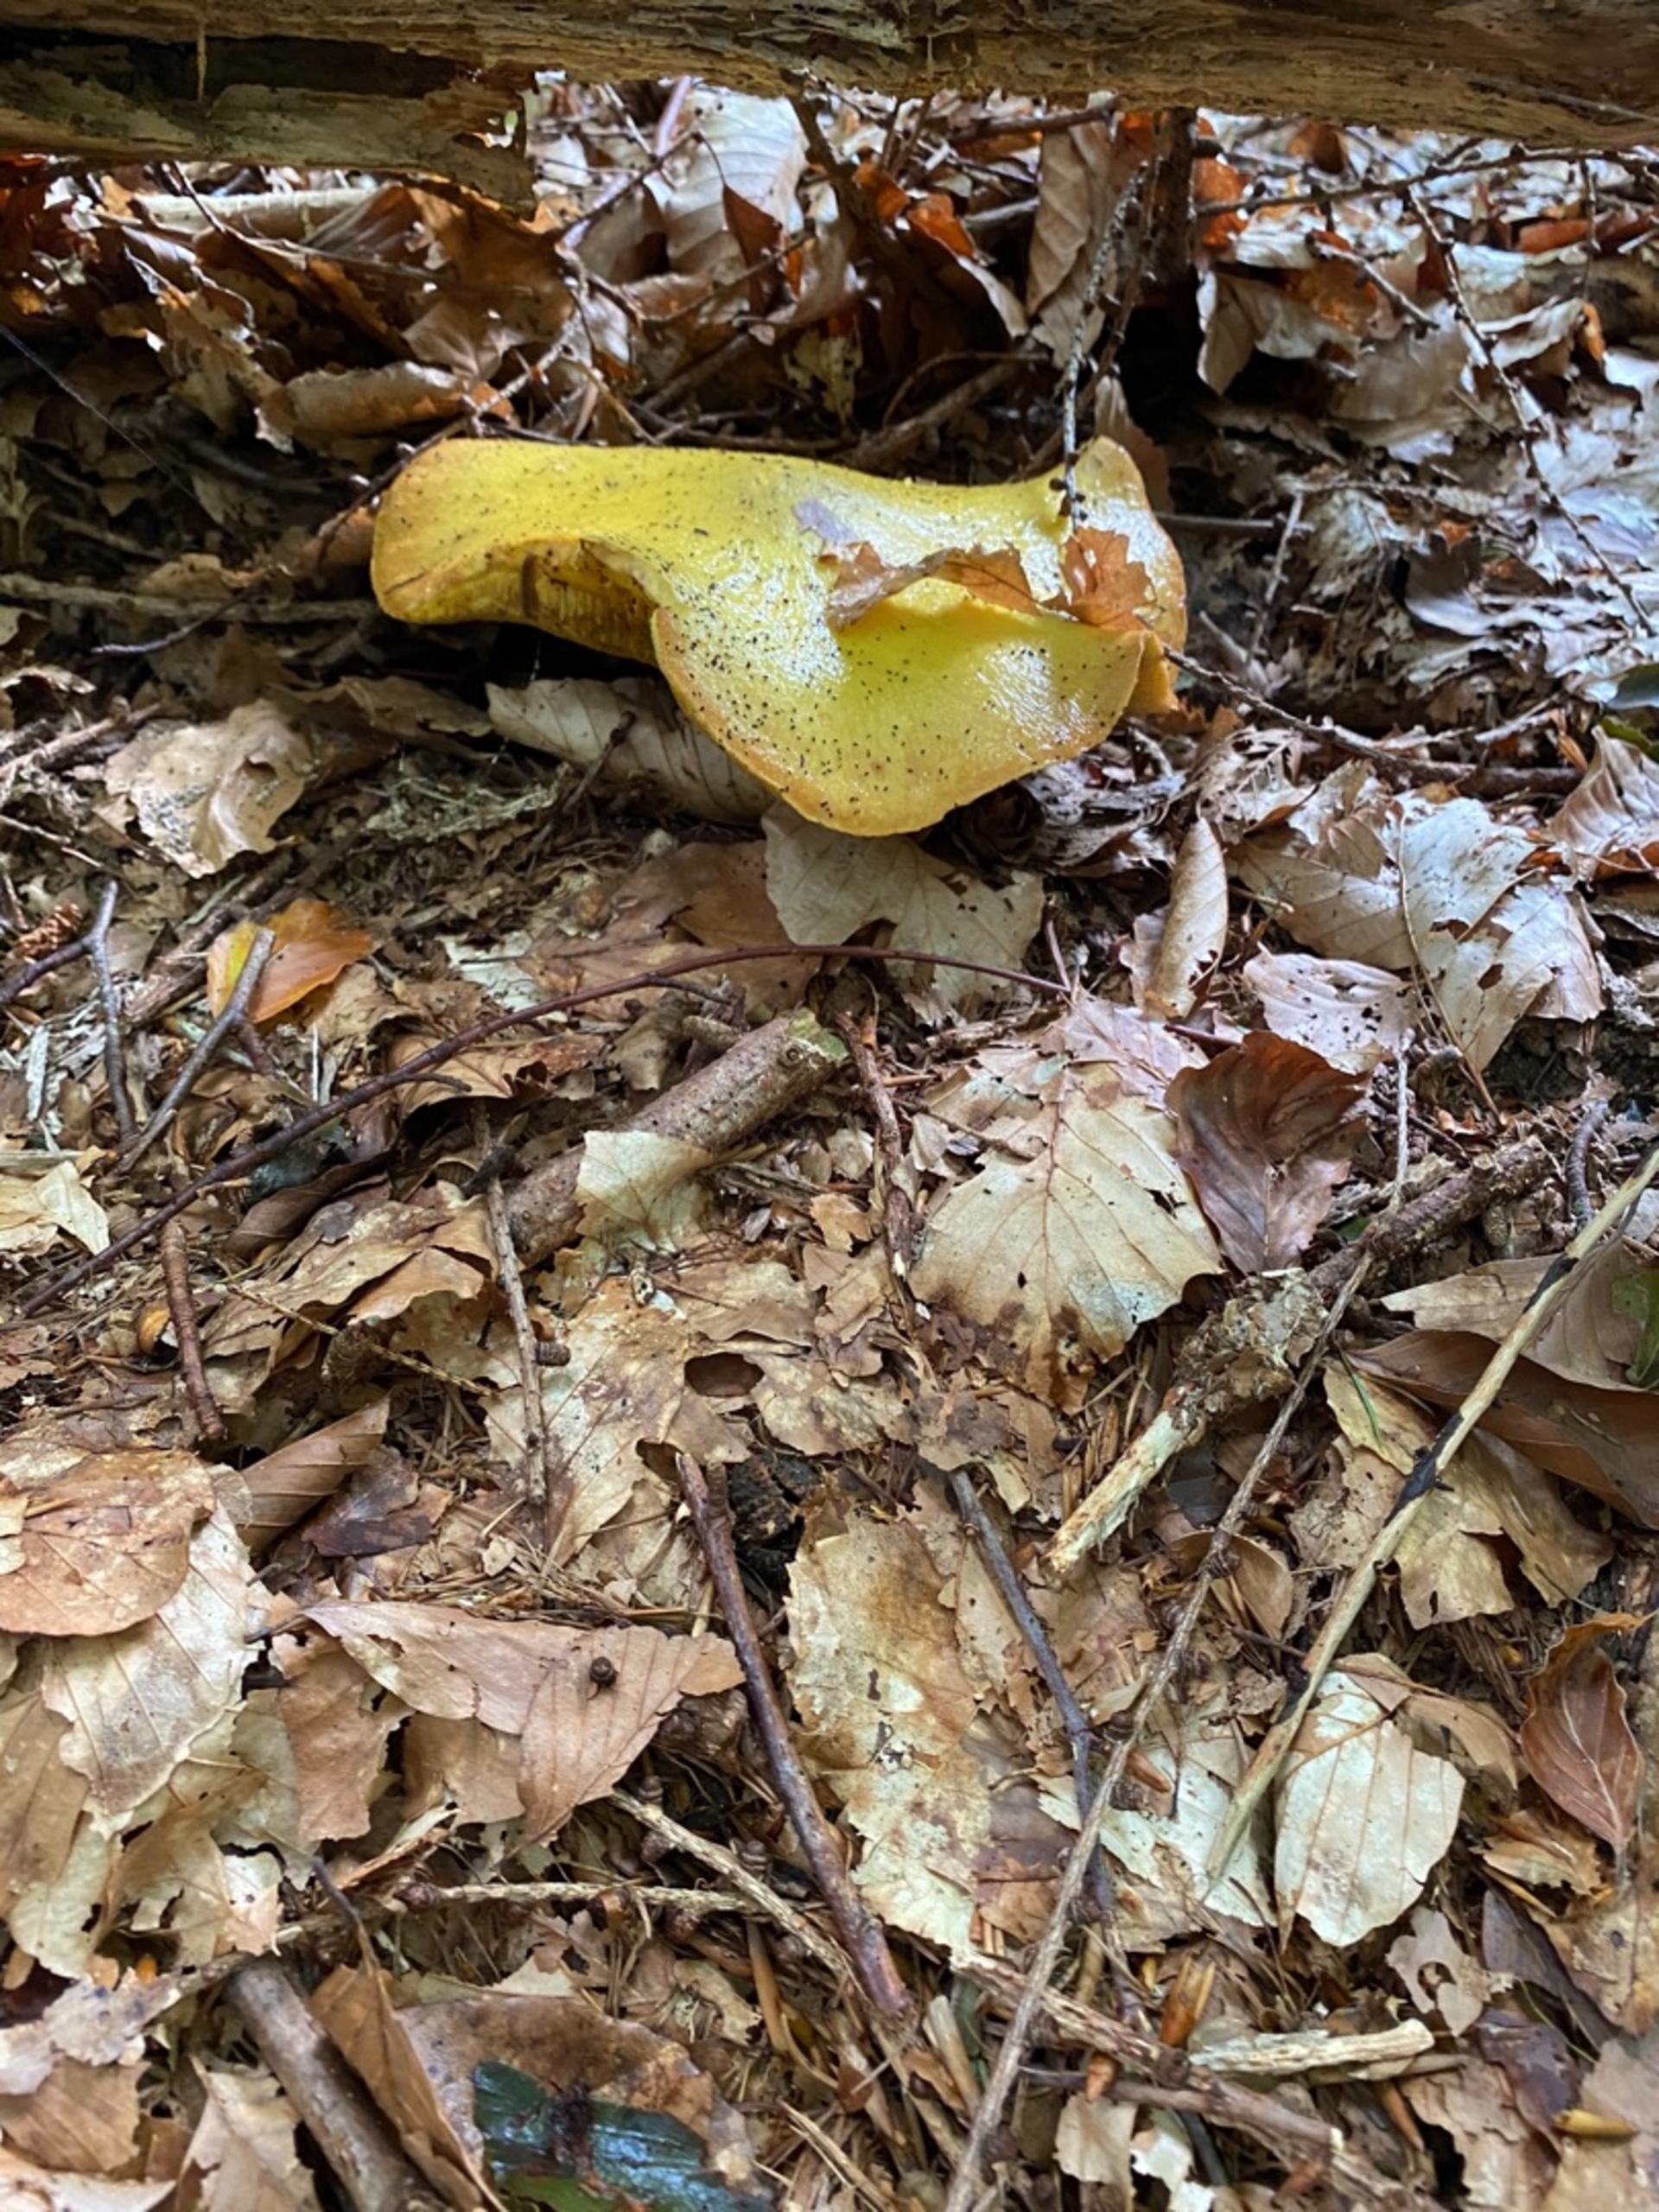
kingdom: Fungi
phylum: Basidiomycota
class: Agaricomycetes
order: Boletales
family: Suillaceae
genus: Suillus
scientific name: Suillus grevillei
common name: Lærke-slimrørhat
